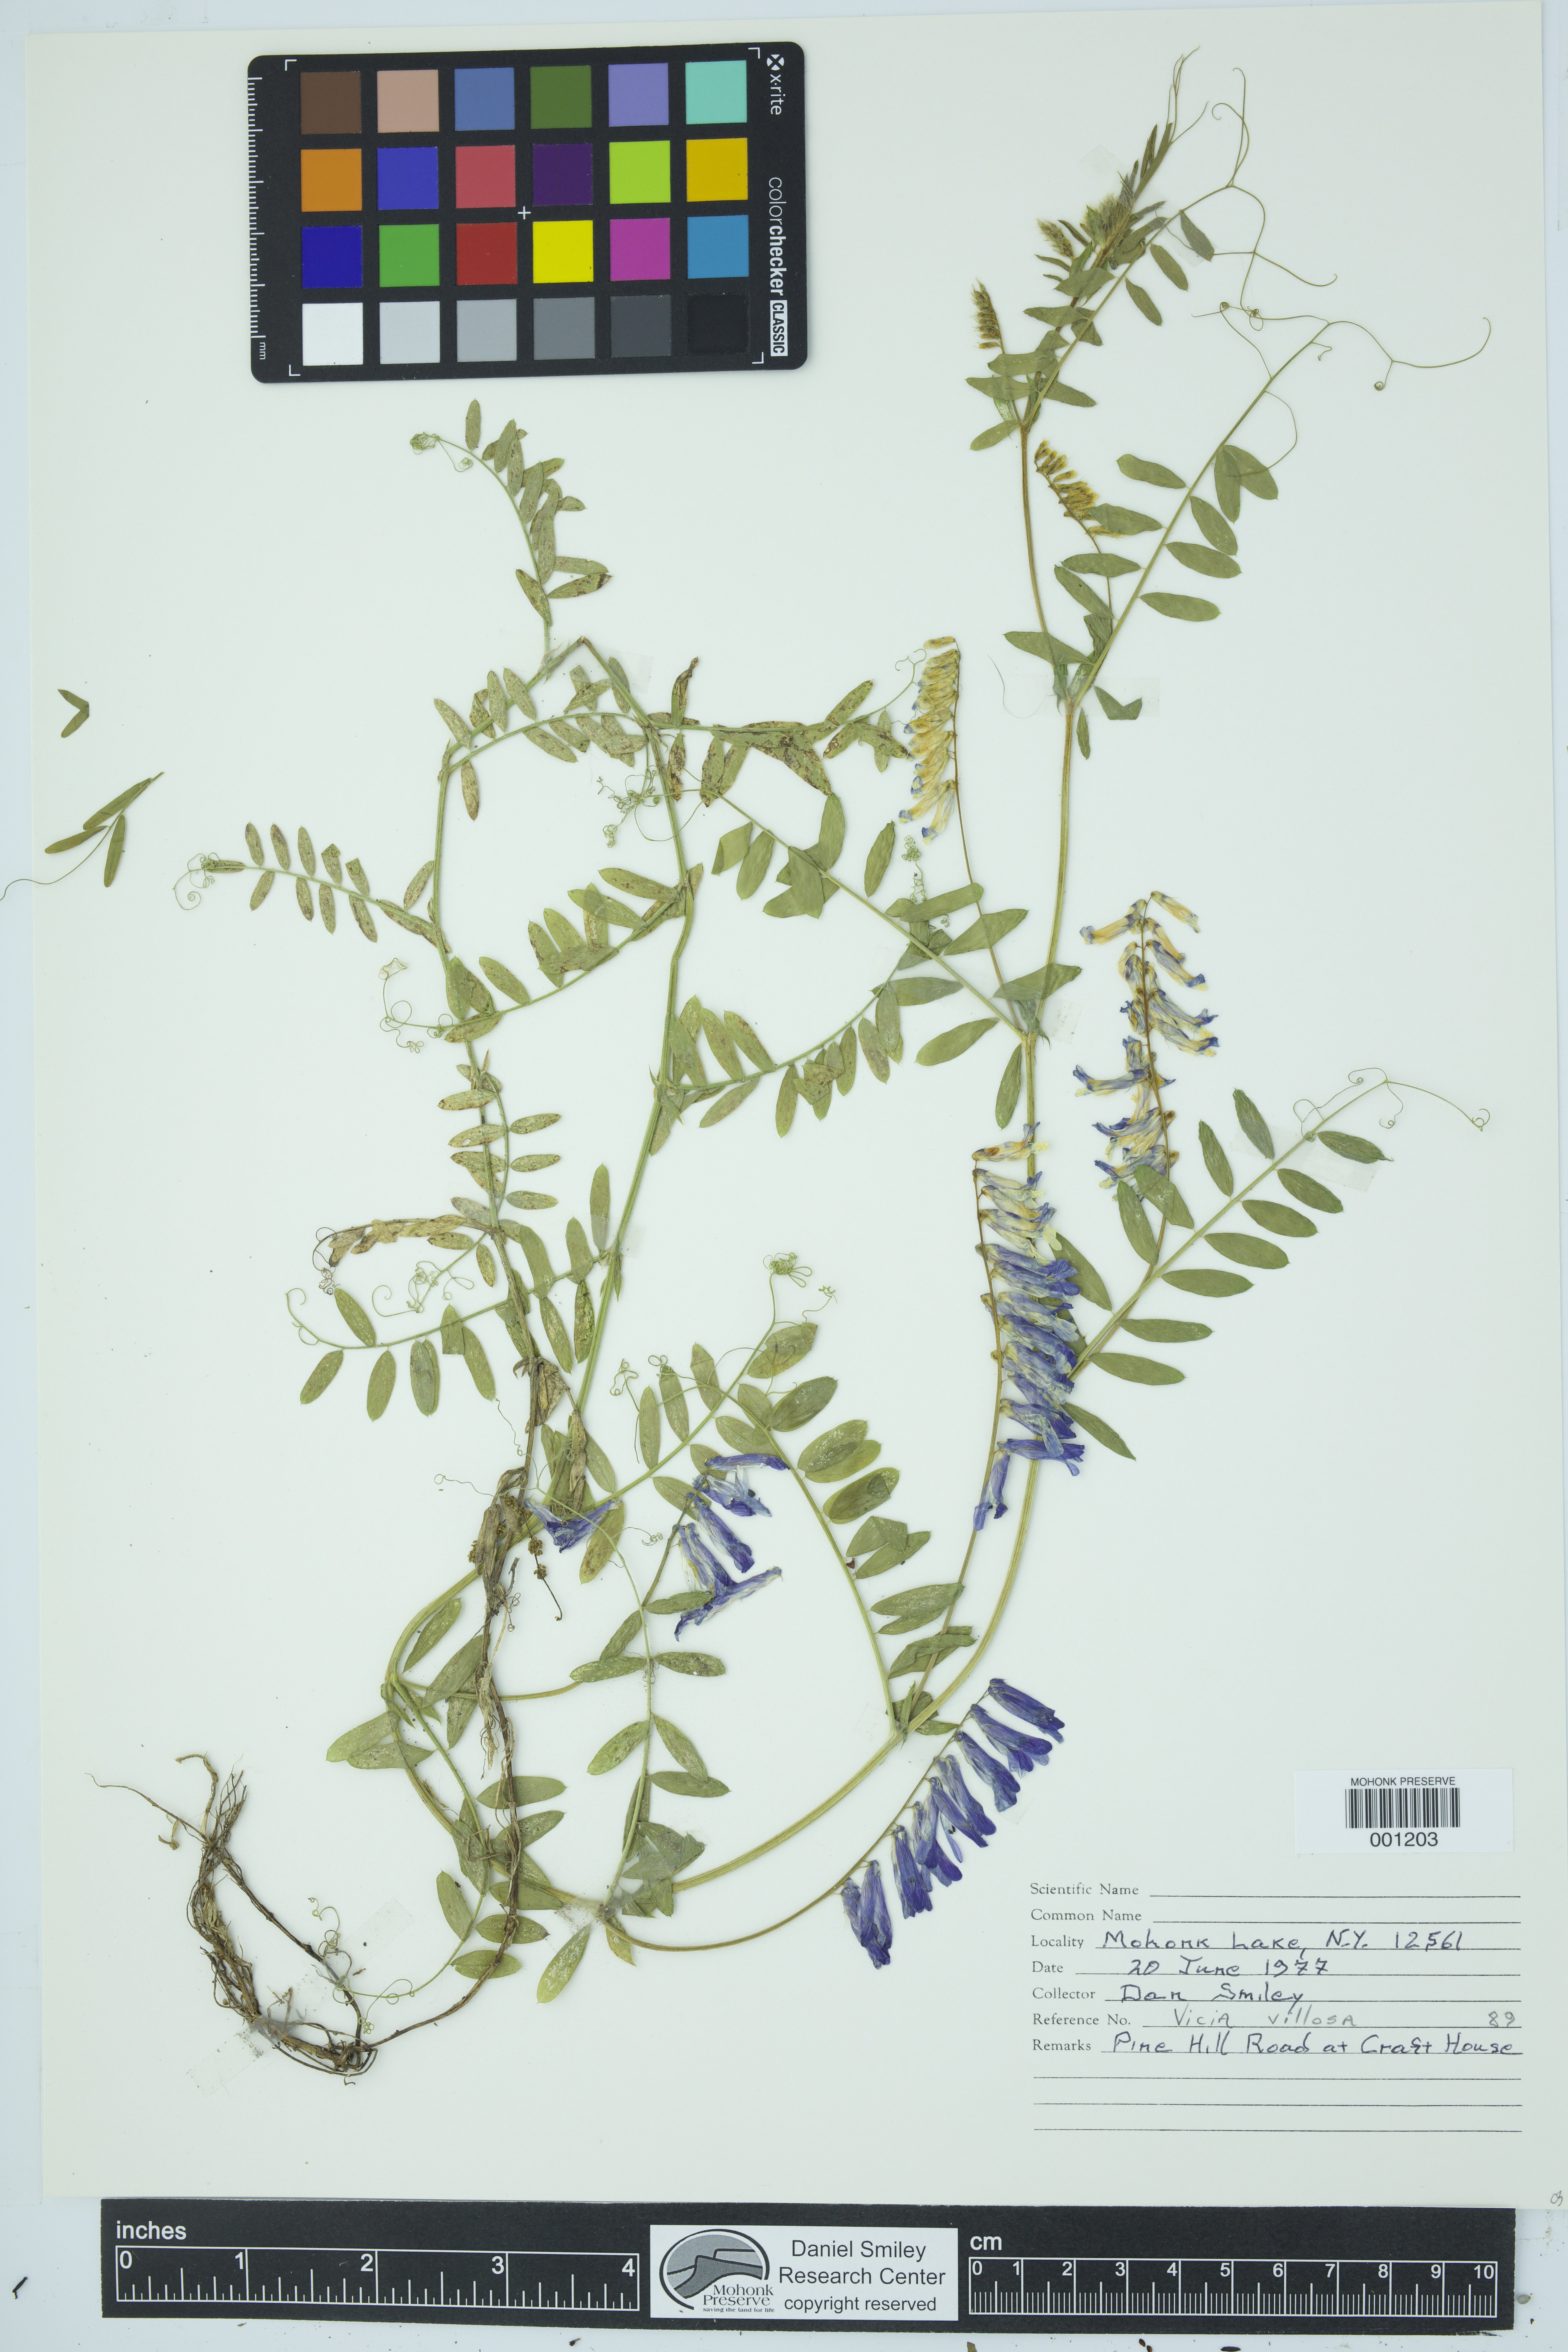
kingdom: Plantae
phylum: Tracheophyta
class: Magnoliopsida
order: Fabales
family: Fabaceae
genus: Vicia
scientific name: Vicia villosa
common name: Fodder vetch
